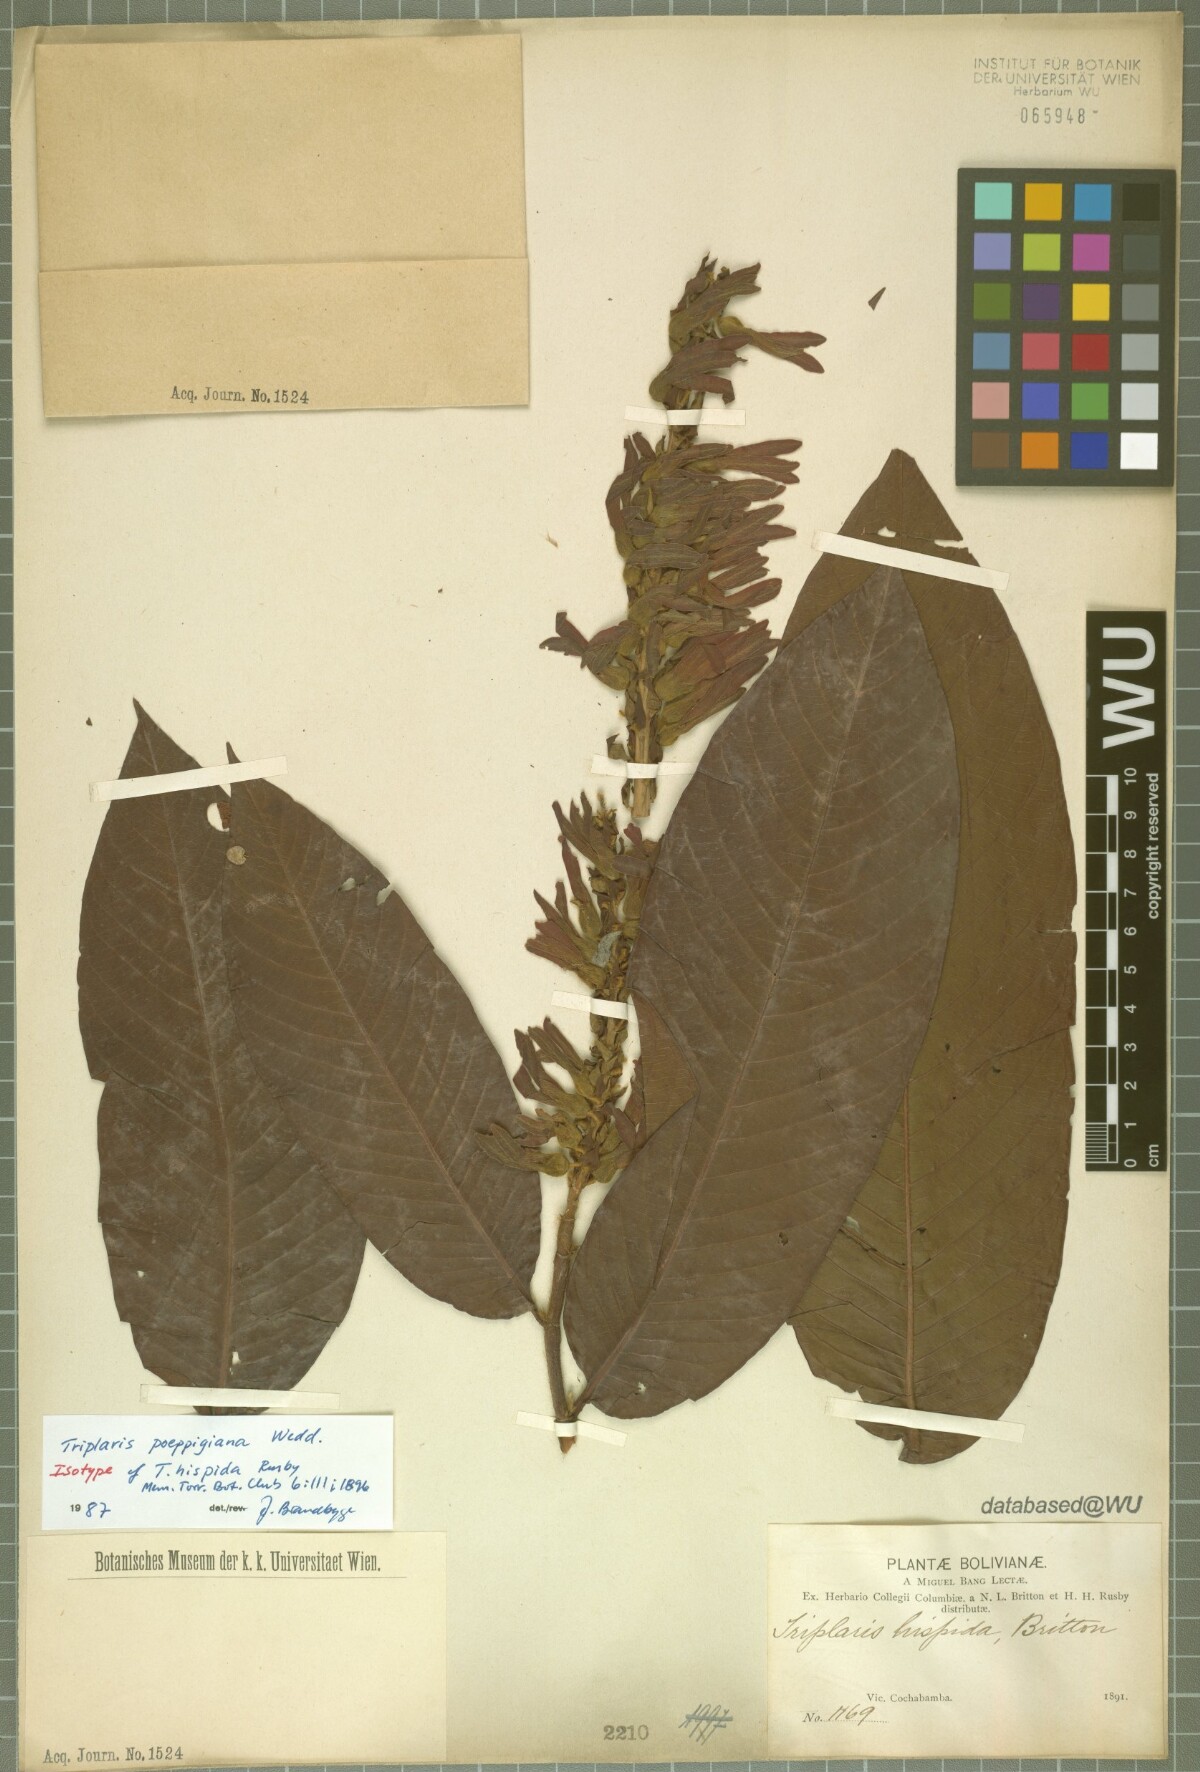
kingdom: Plantae
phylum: Tracheophyta
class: Magnoliopsida
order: Caryophyllales
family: Polygonaceae
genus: Triplaris
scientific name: Triplaris hispida
